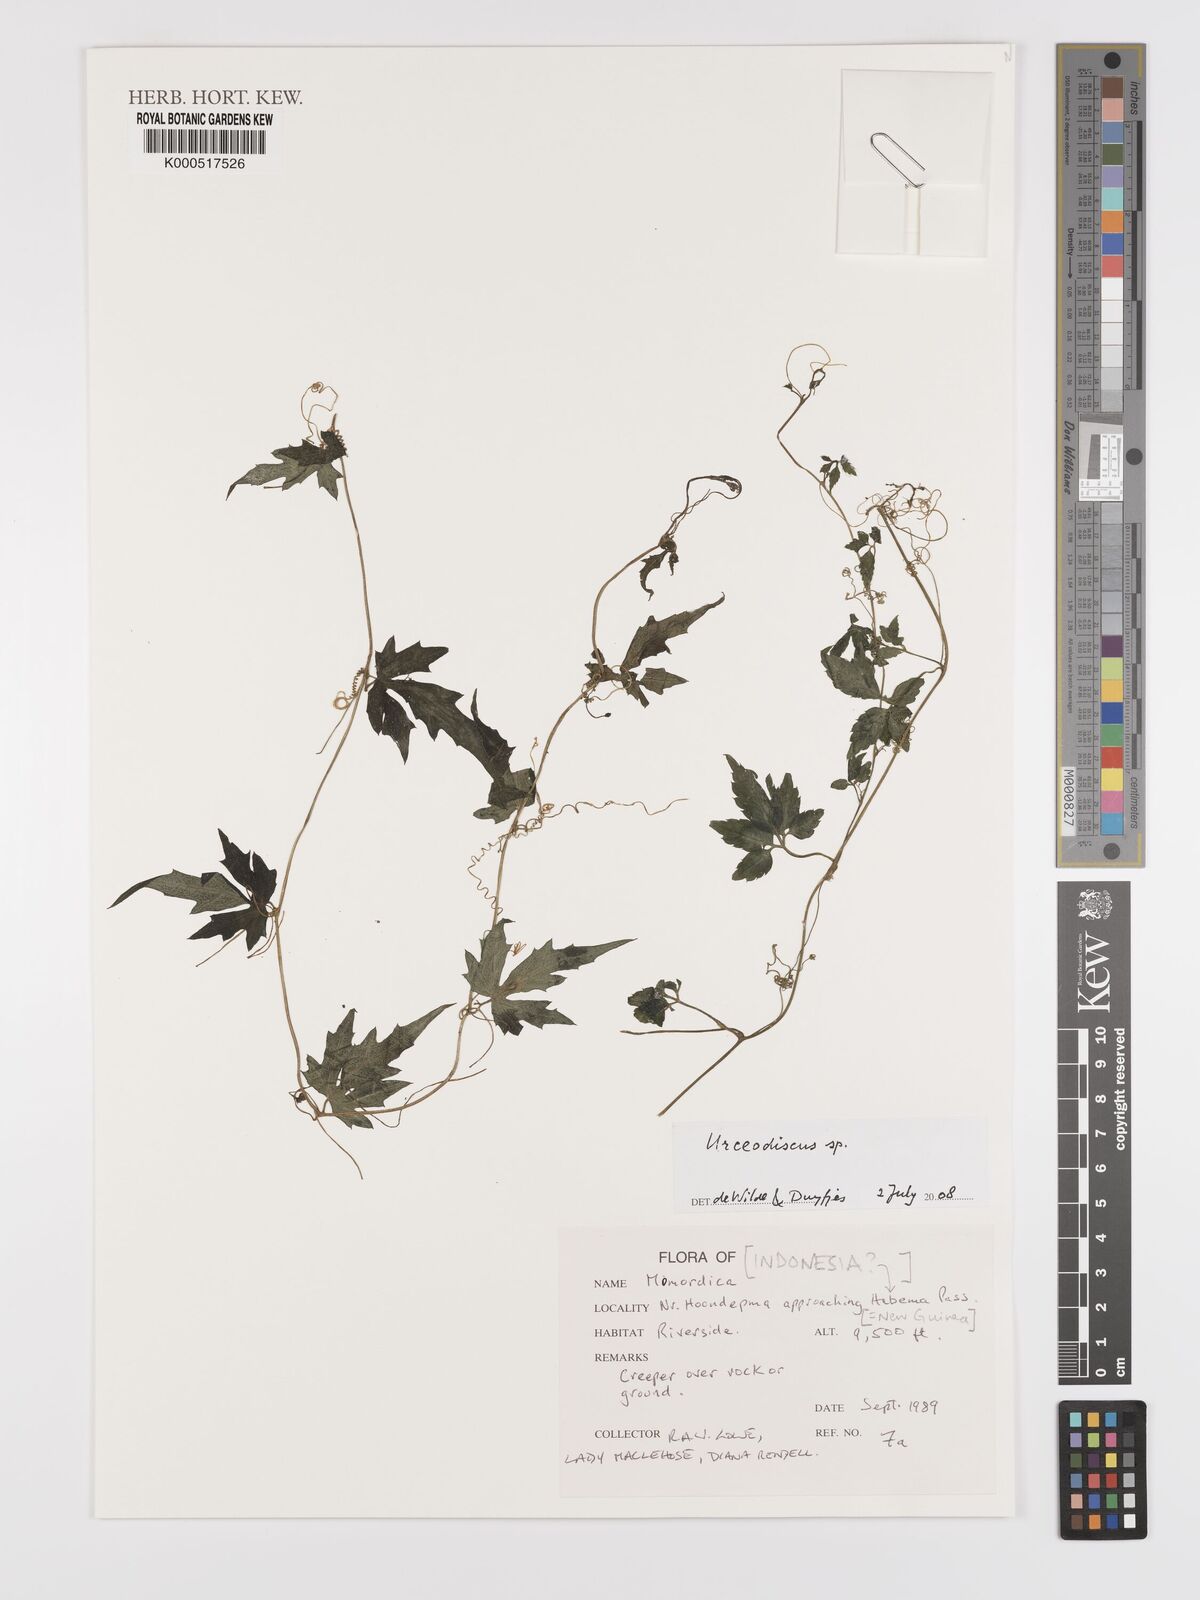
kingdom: Plantae
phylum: Tracheophyta
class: Magnoliopsida
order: Cucurbitales
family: Cucurbitaceae
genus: Papuasicyos
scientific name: Papuasicyos
